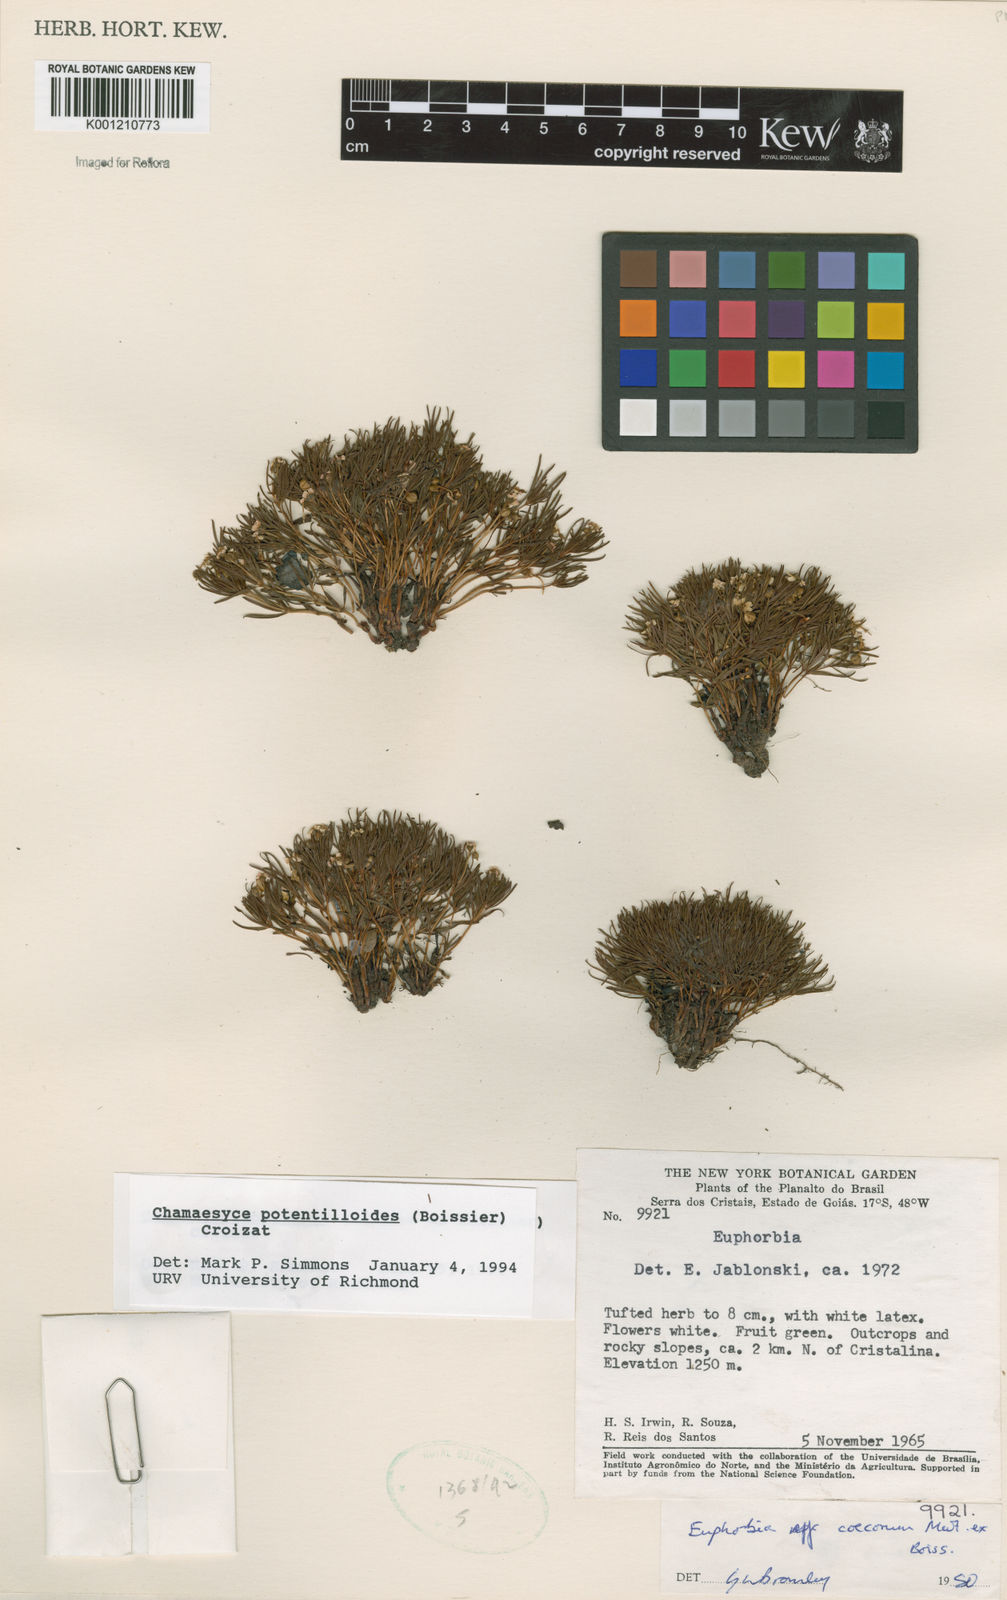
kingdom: Plantae
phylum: Tracheophyta
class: Magnoliopsida
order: Malpighiales
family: Euphorbiaceae
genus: Euphorbia
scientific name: Euphorbia potentilloides
